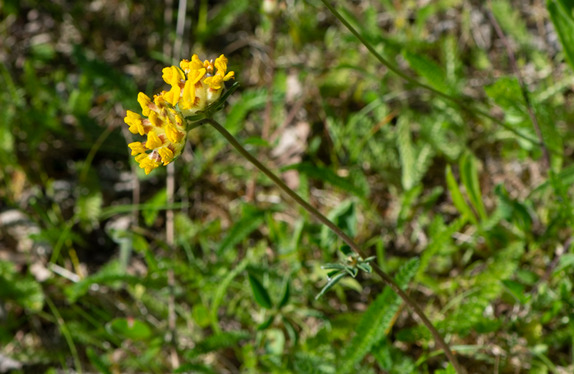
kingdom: Plantae
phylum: Tracheophyta
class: Magnoliopsida
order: Fabales
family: Fabaceae
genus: Anthyllis
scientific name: Anthyllis vulneraria
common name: Rundbælg
